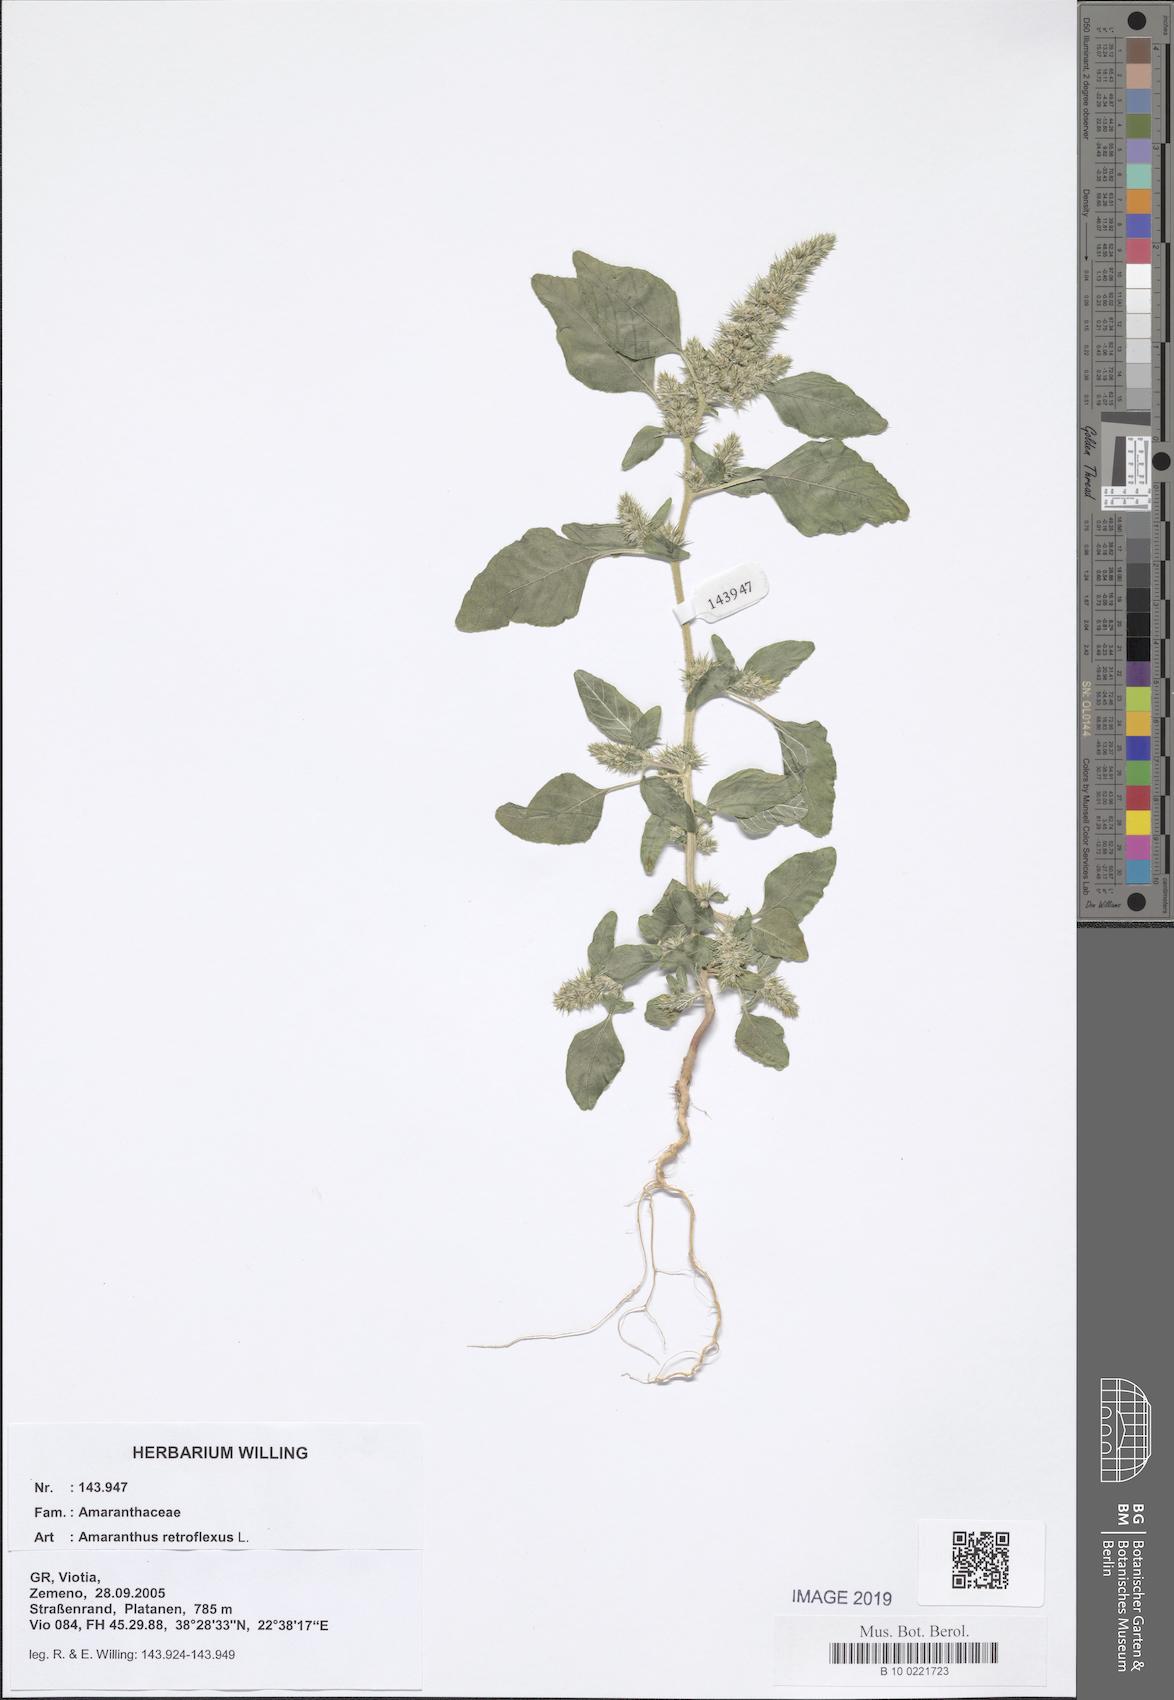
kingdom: Plantae
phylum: Tracheophyta
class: Magnoliopsida
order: Caryophyllales
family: Amaranthaceae
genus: Amaranthus
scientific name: Amaranthus retroflexus
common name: Redroot amaranth
